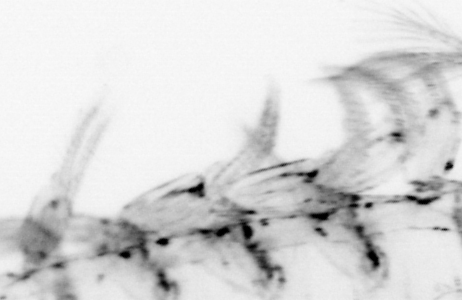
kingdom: Animalia
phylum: Chaetognatha
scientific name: Chaetognatha
